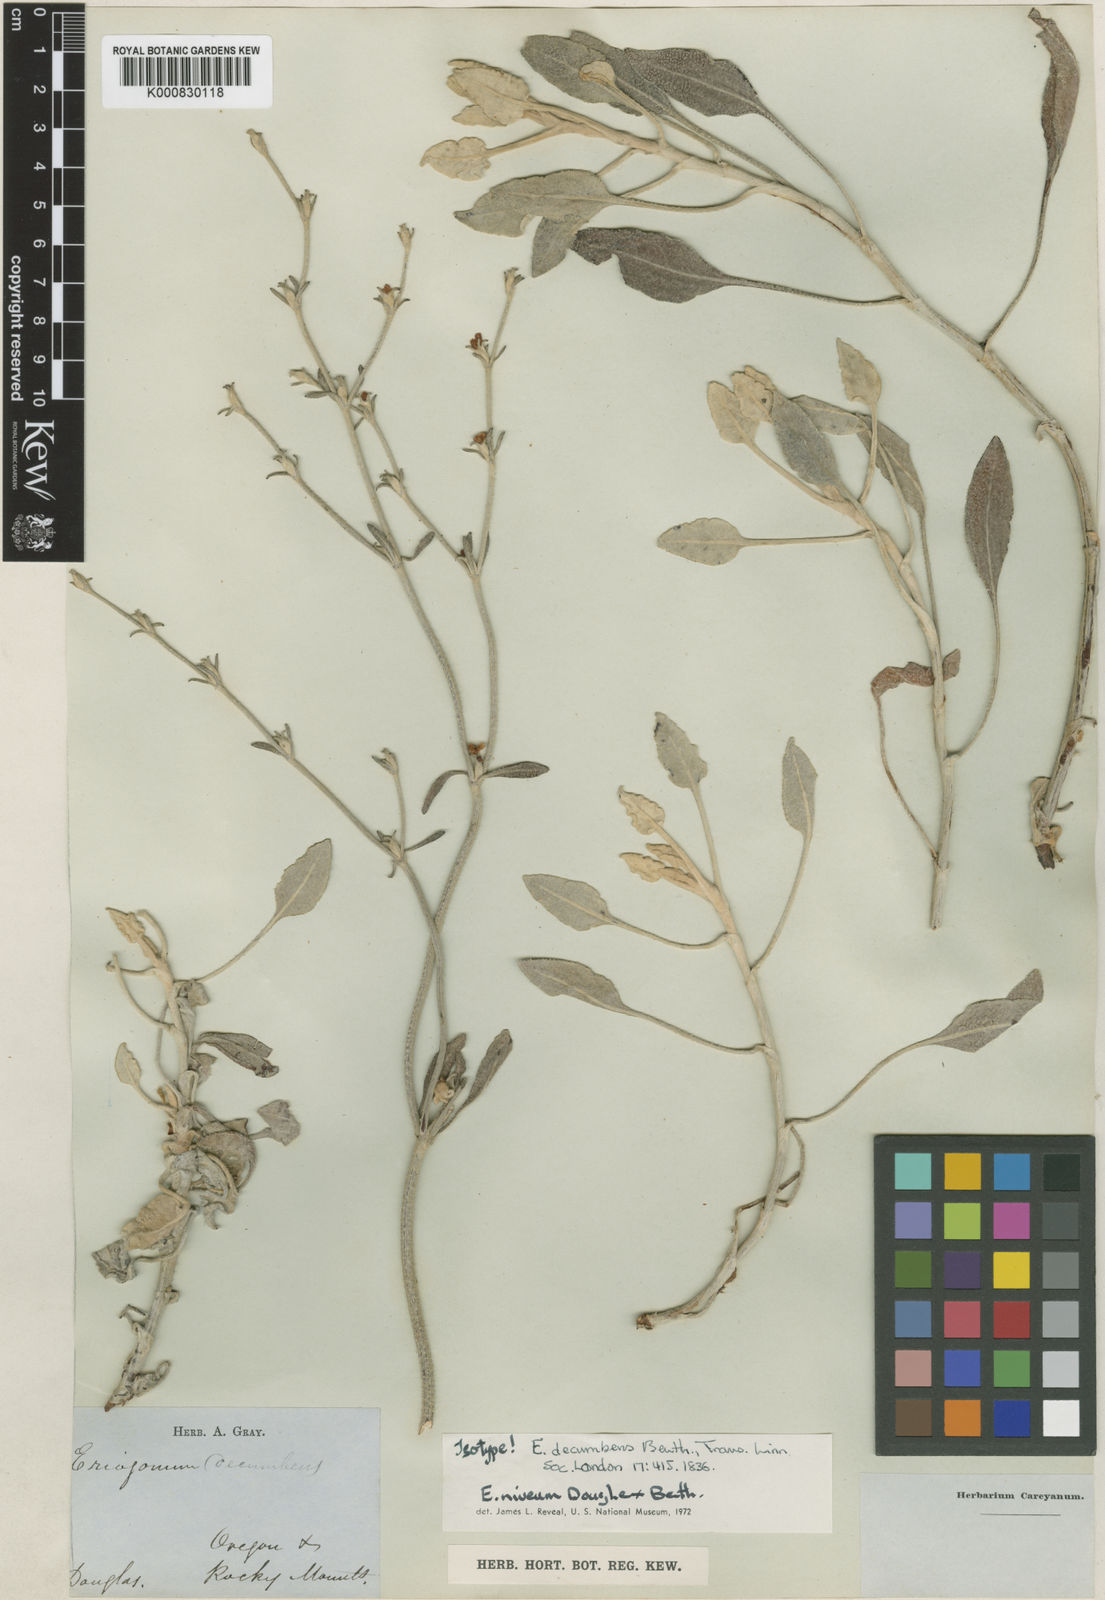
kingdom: Plantae
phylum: Tracheophyta
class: Magnoliopsida
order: Caryophyllales
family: Polygonaceae
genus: Eriogonum
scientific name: Eriogonum niveum
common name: Snow wild buckwheat
